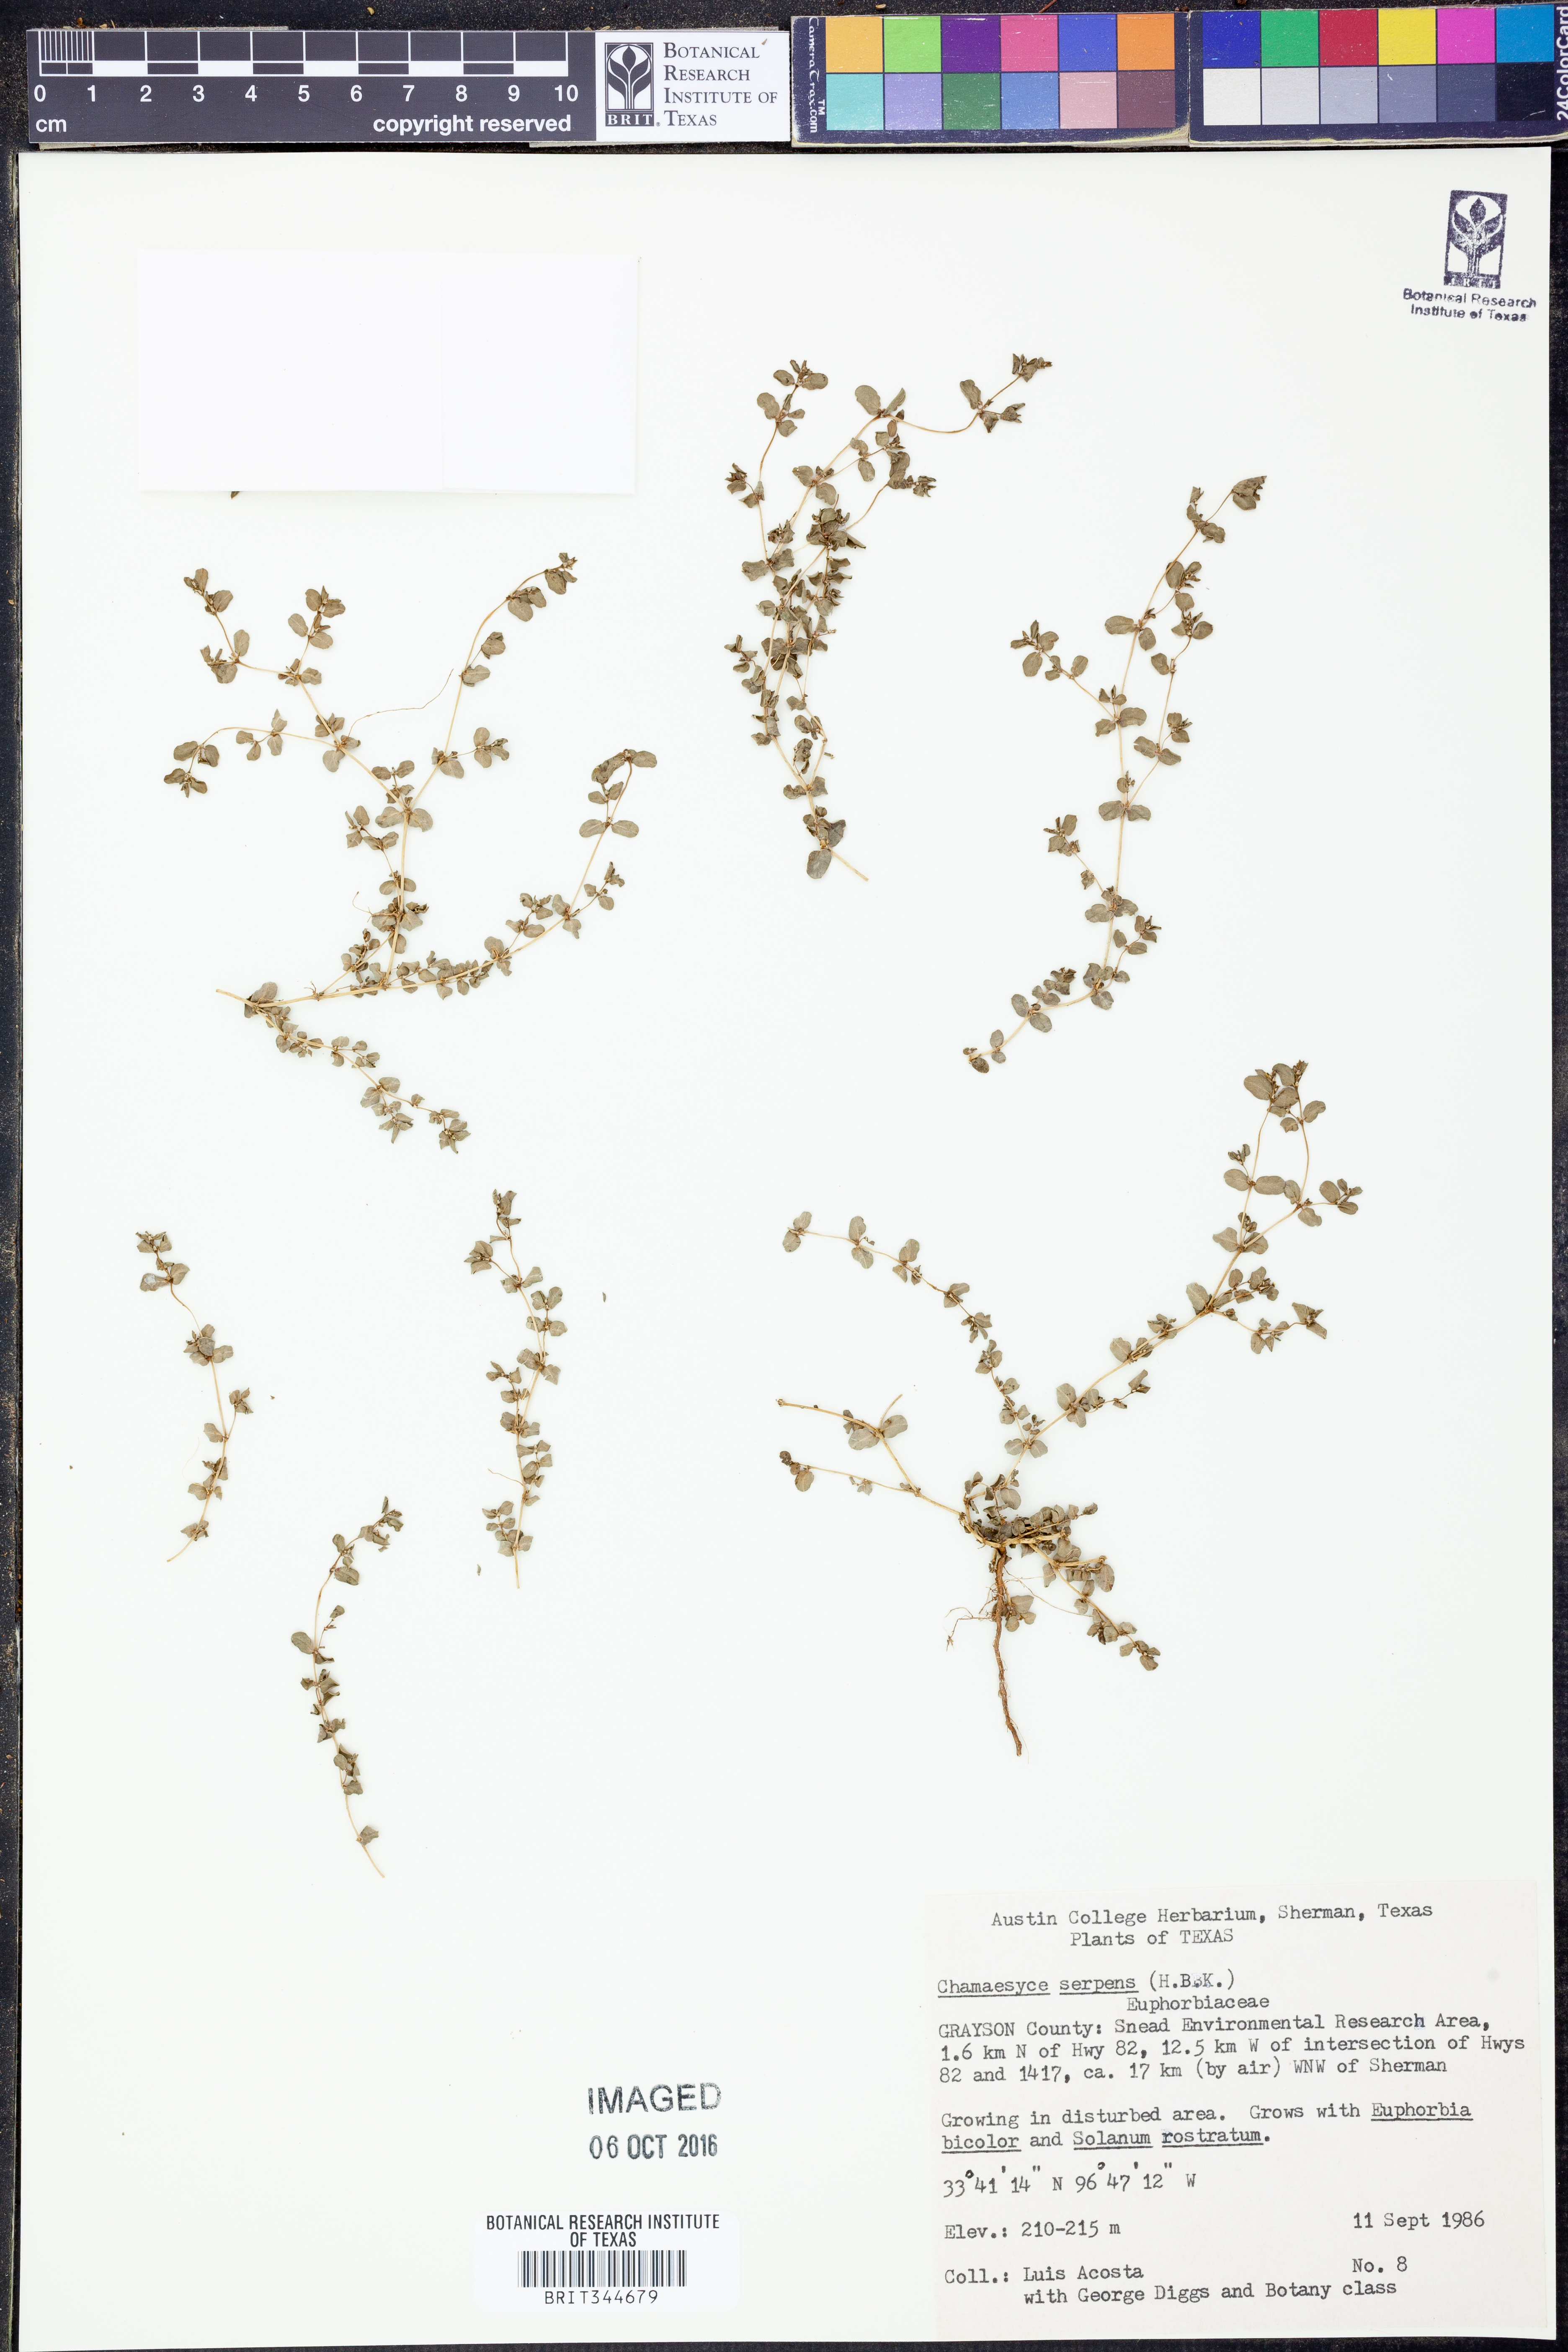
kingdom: Plantae
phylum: Tracheophyta
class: Magnoliopsida
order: Malpighiales
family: Euphorbiaceae
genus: Euphorbia
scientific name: Euphorbia serpens
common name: Matted sandmat
